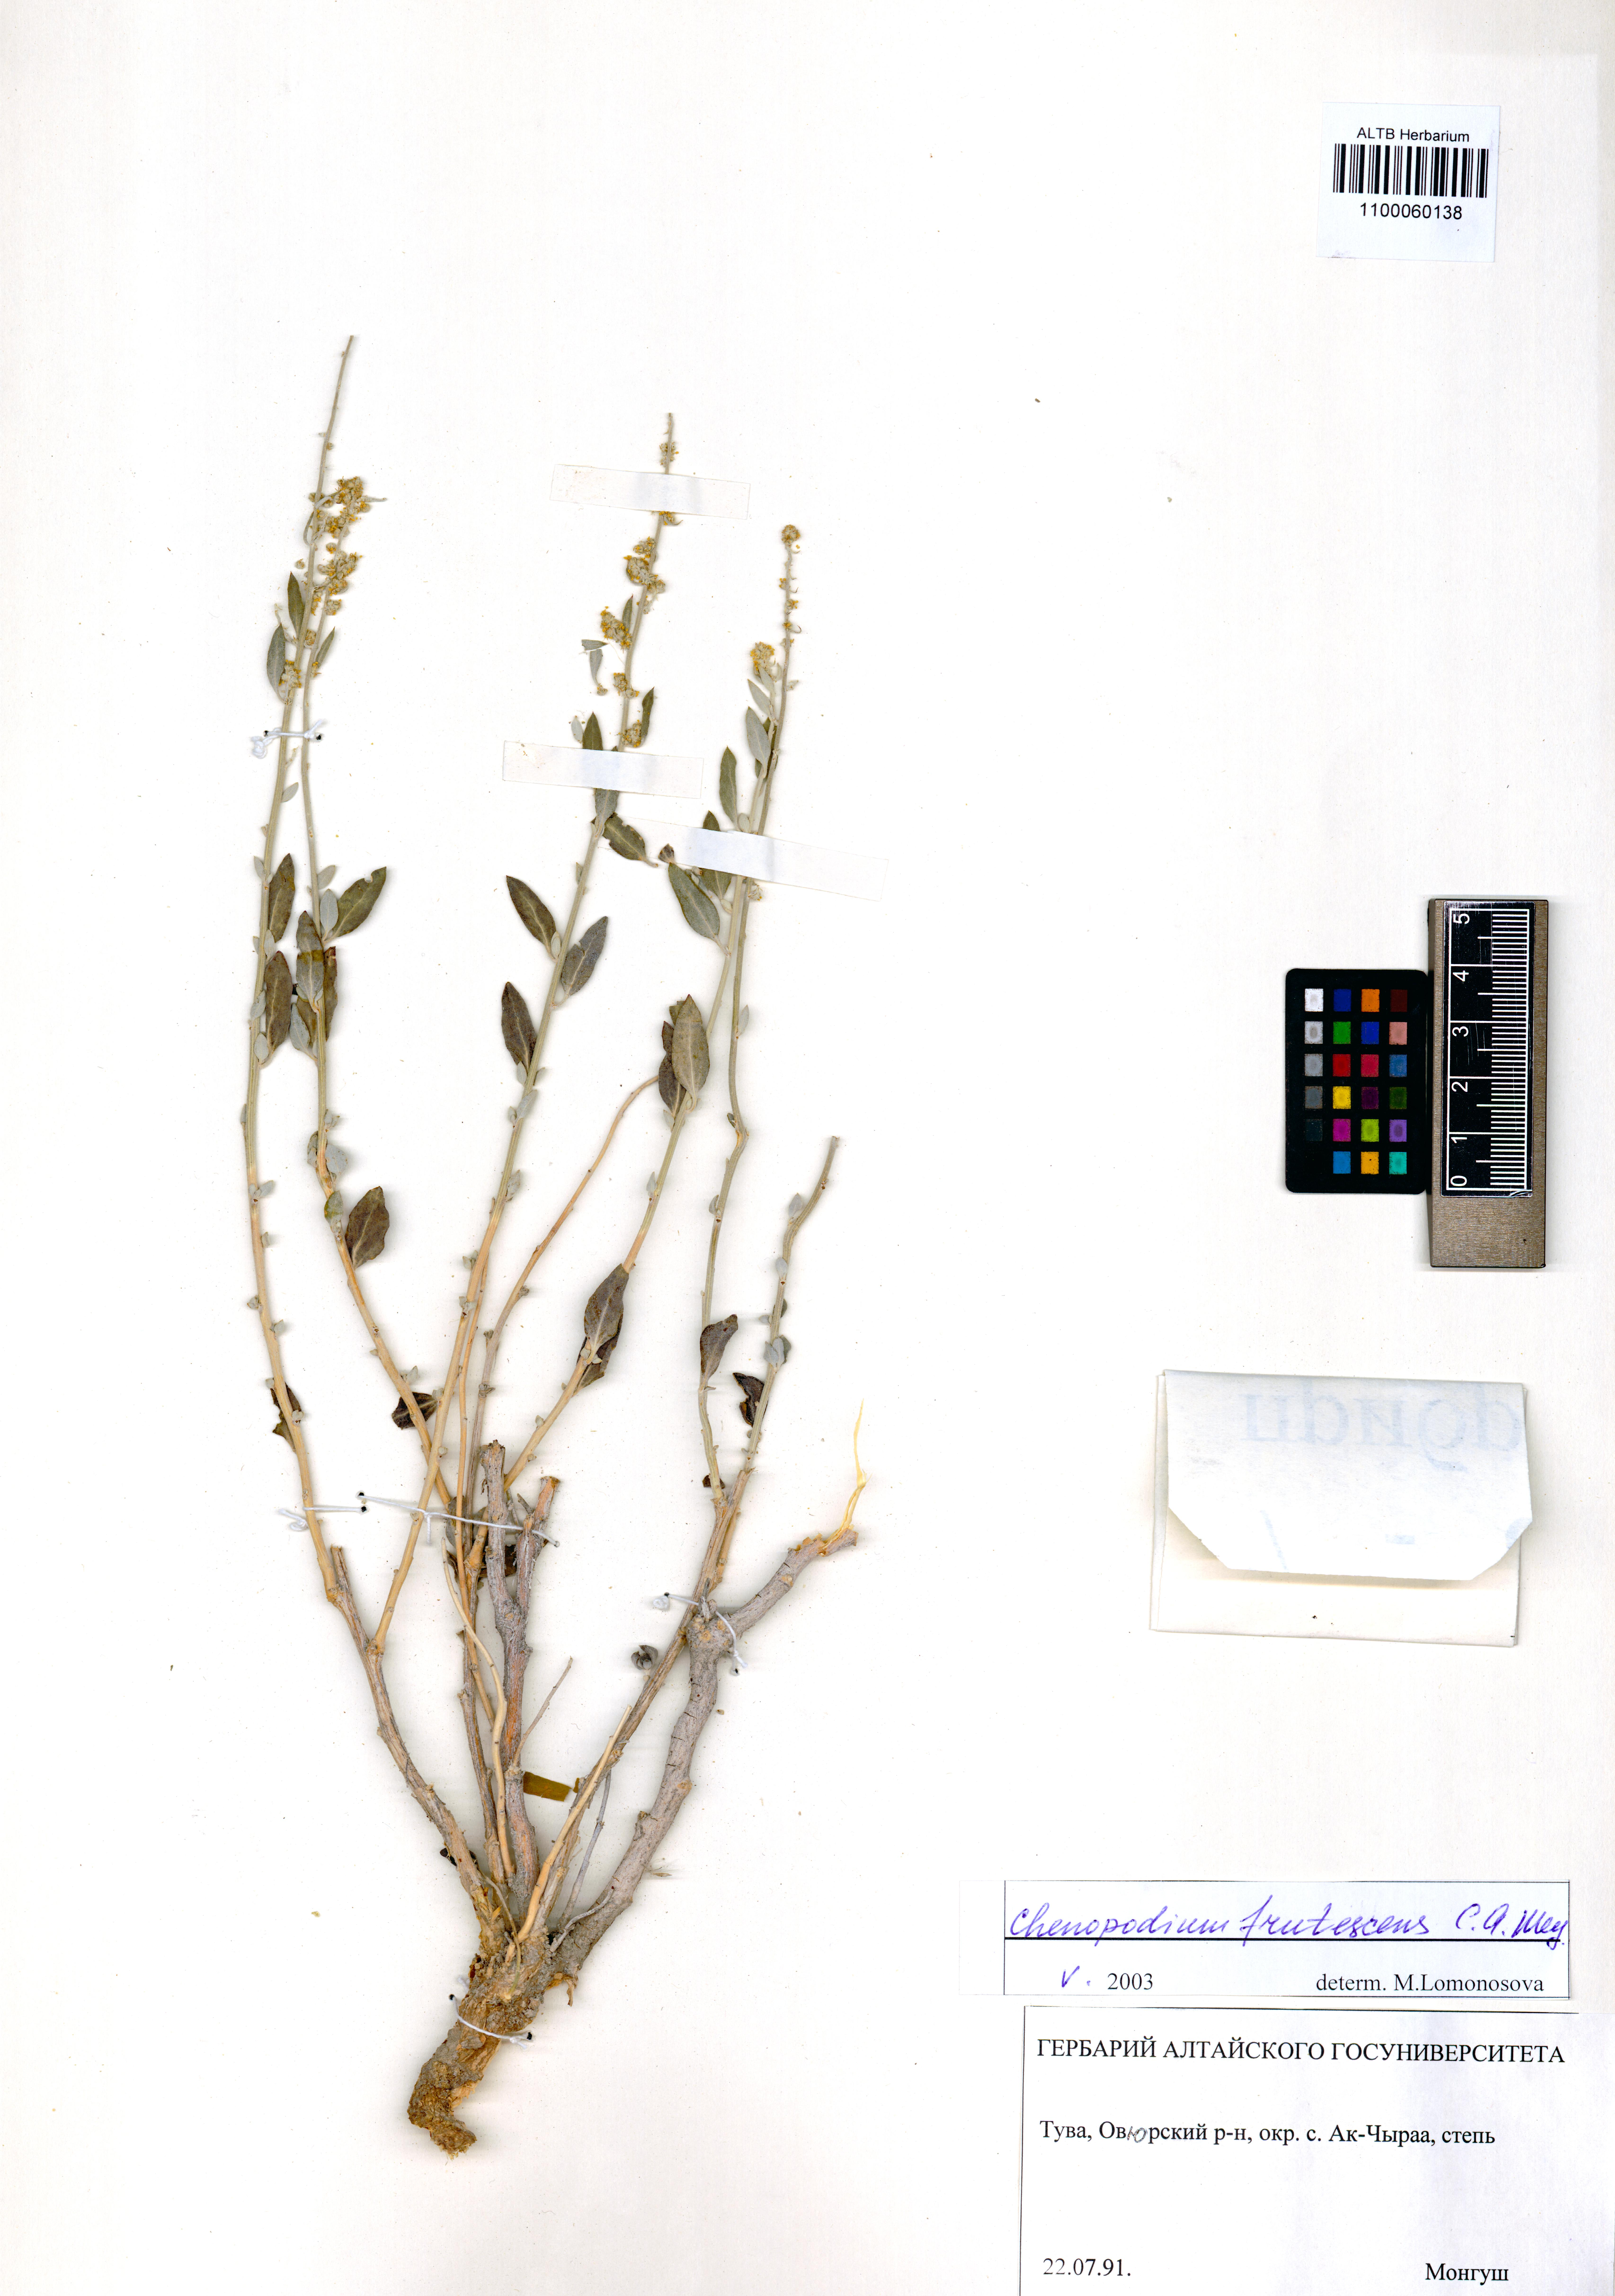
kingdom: Plantae
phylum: Tracheophyta
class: Magnoliopsida
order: Caryophyllales
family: Amaranthaceae
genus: Chenopodium
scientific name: Chenopodium frutescens
